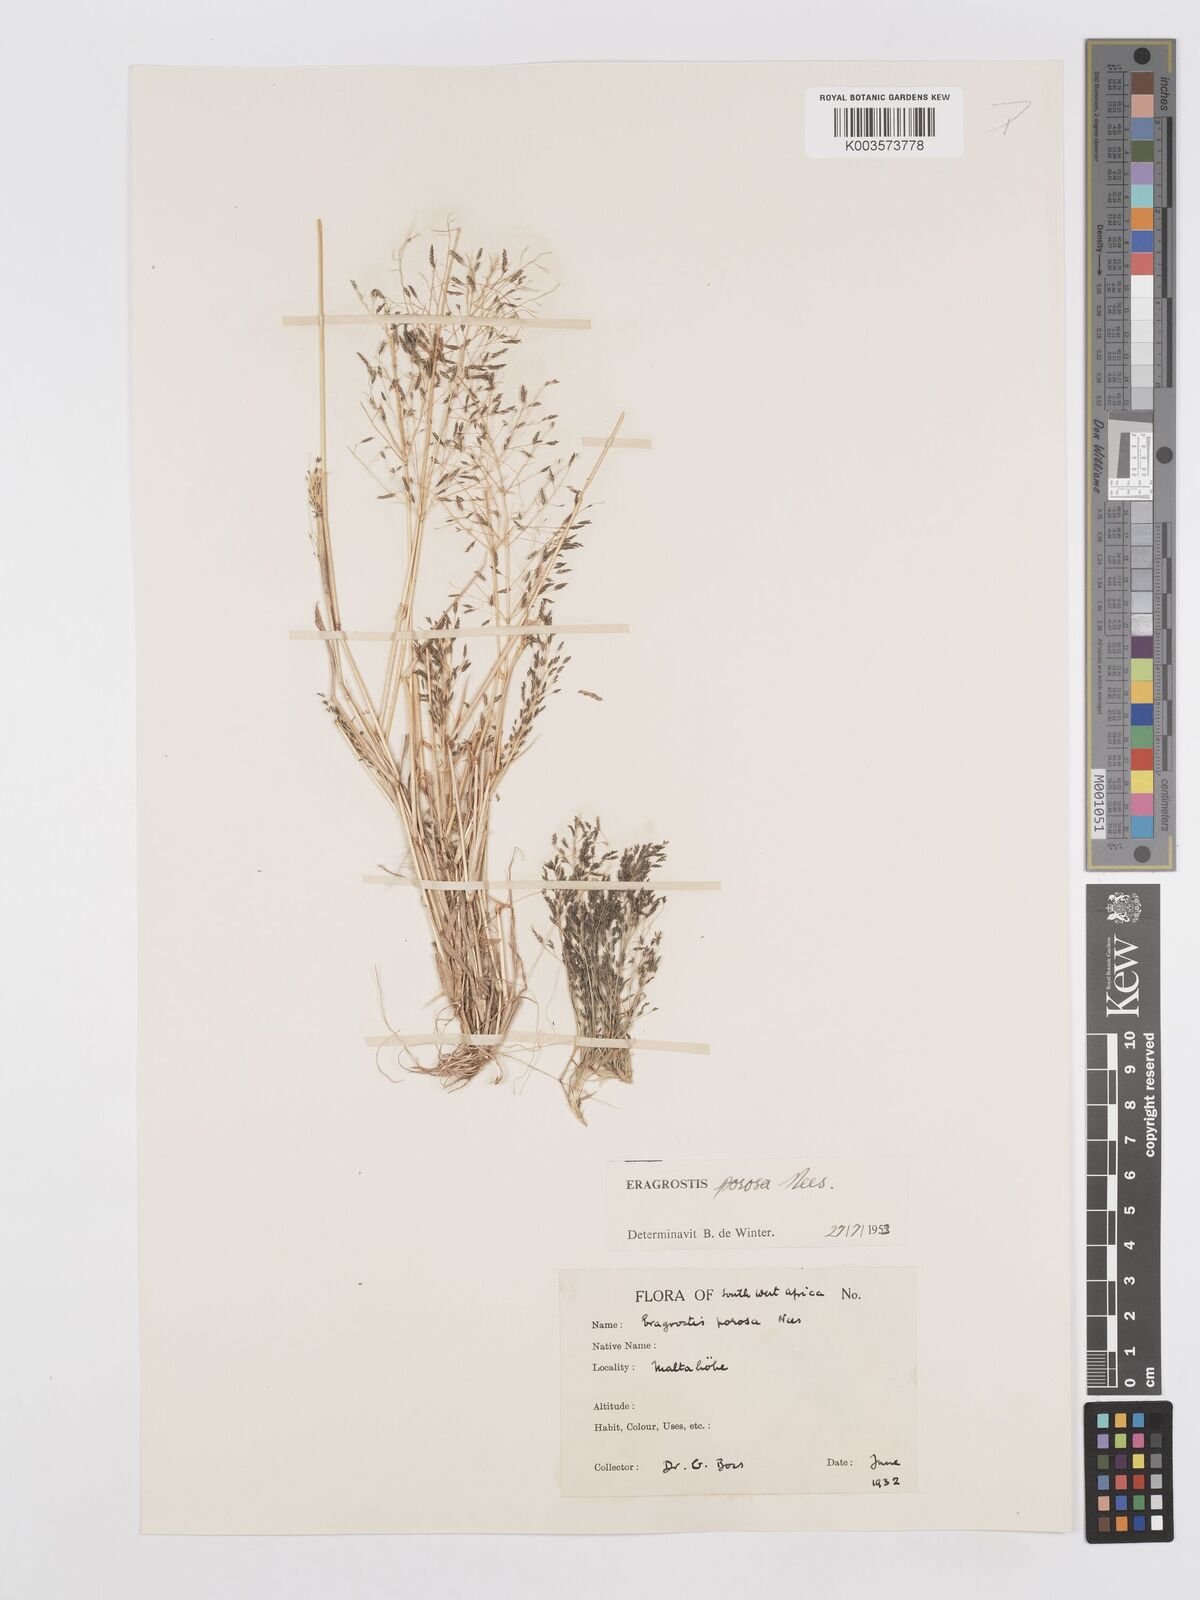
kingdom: Plantae
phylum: Tracheophyta
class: Liliopsida
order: Poales
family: Poaceae
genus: Eragrostis
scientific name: Eragrostis porosa
